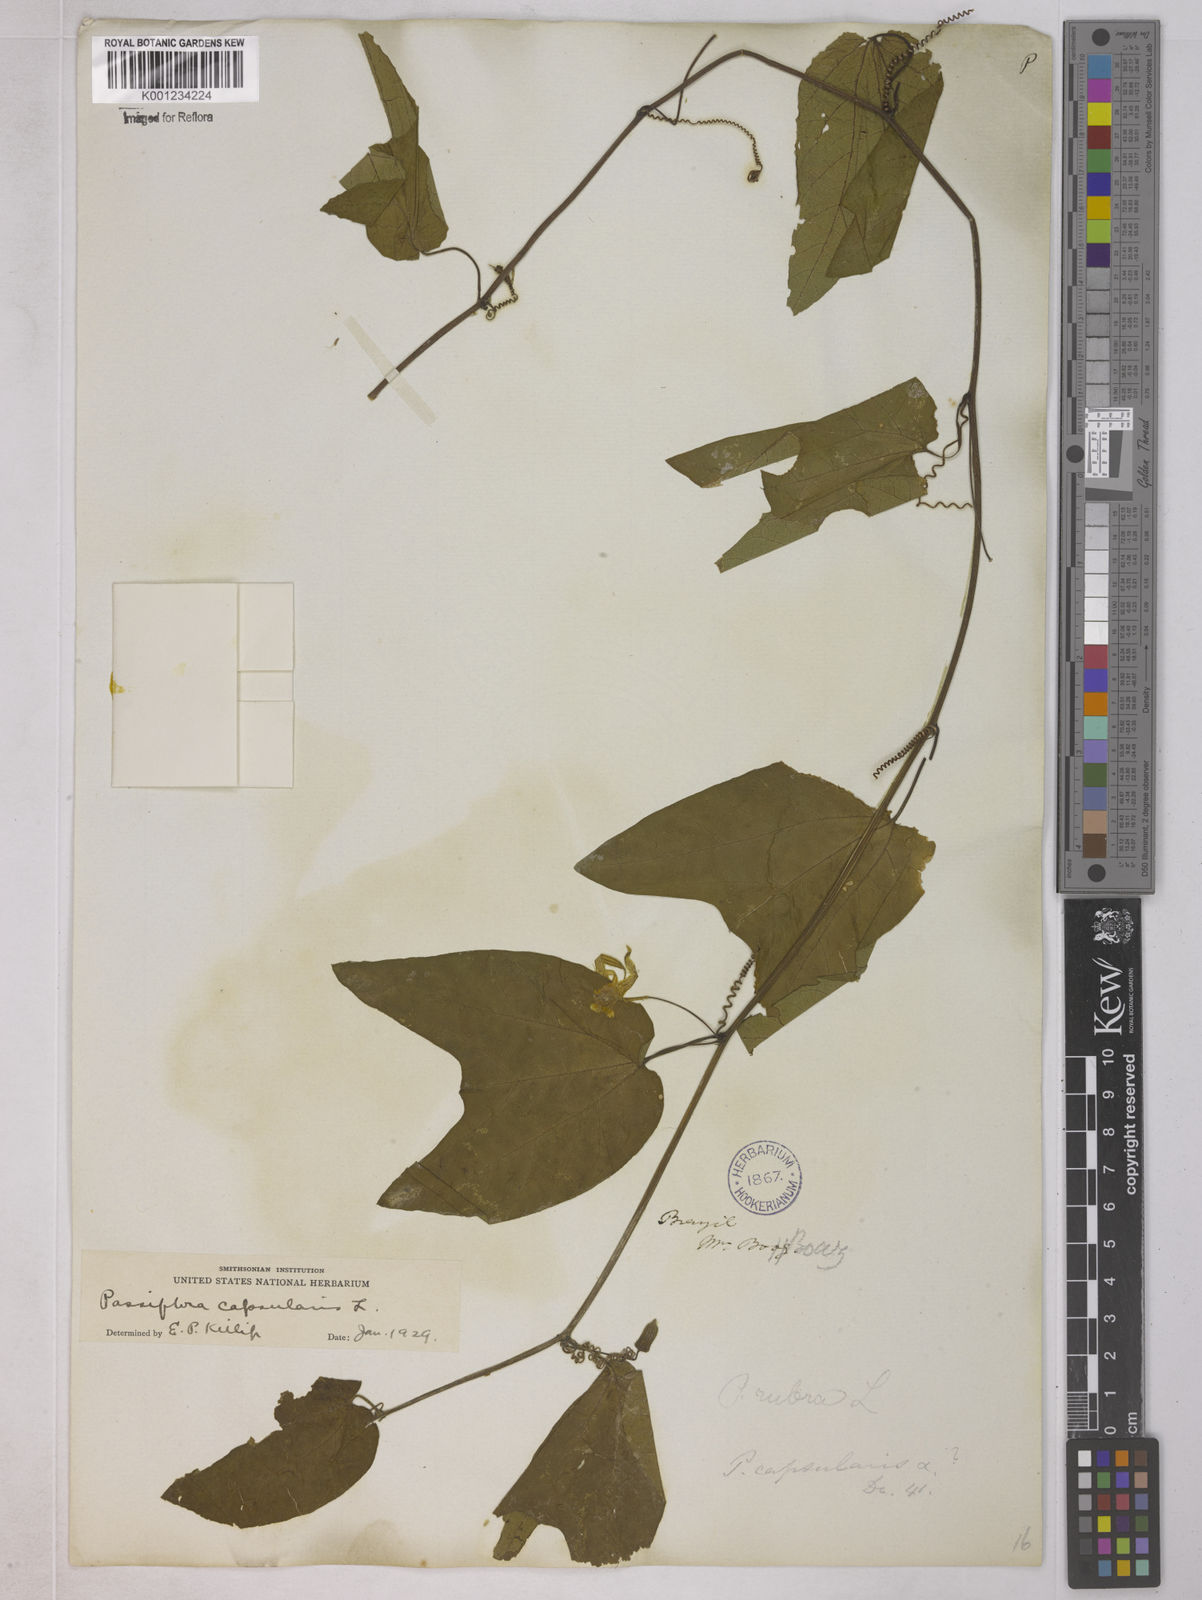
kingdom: Plantae
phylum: Tracheophyta
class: Magnoliopsida
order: Malpighiales
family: Passifloraceae
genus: Passiflora
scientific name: Passiflora capsularis
